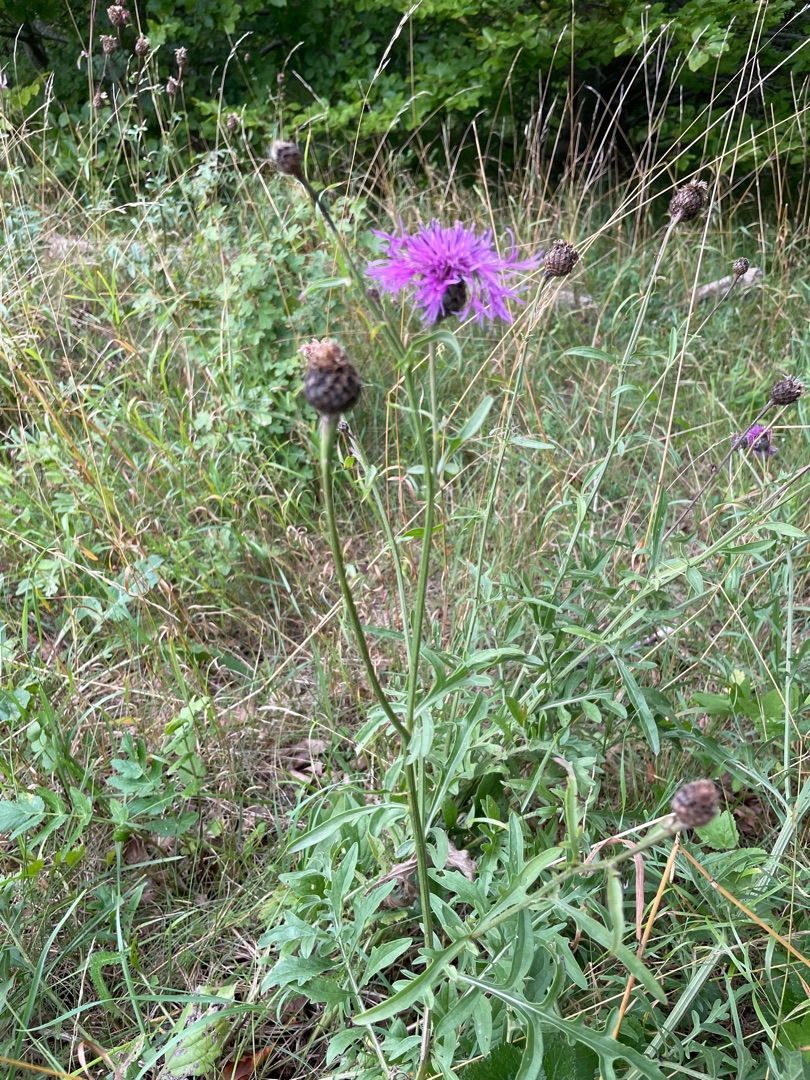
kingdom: Plantae
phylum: Tracheophyta
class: Magnoliopsida
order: Asterales
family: Asteraceae
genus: Centaurea
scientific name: Centaurea scabiosa
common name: Stor knopurt
